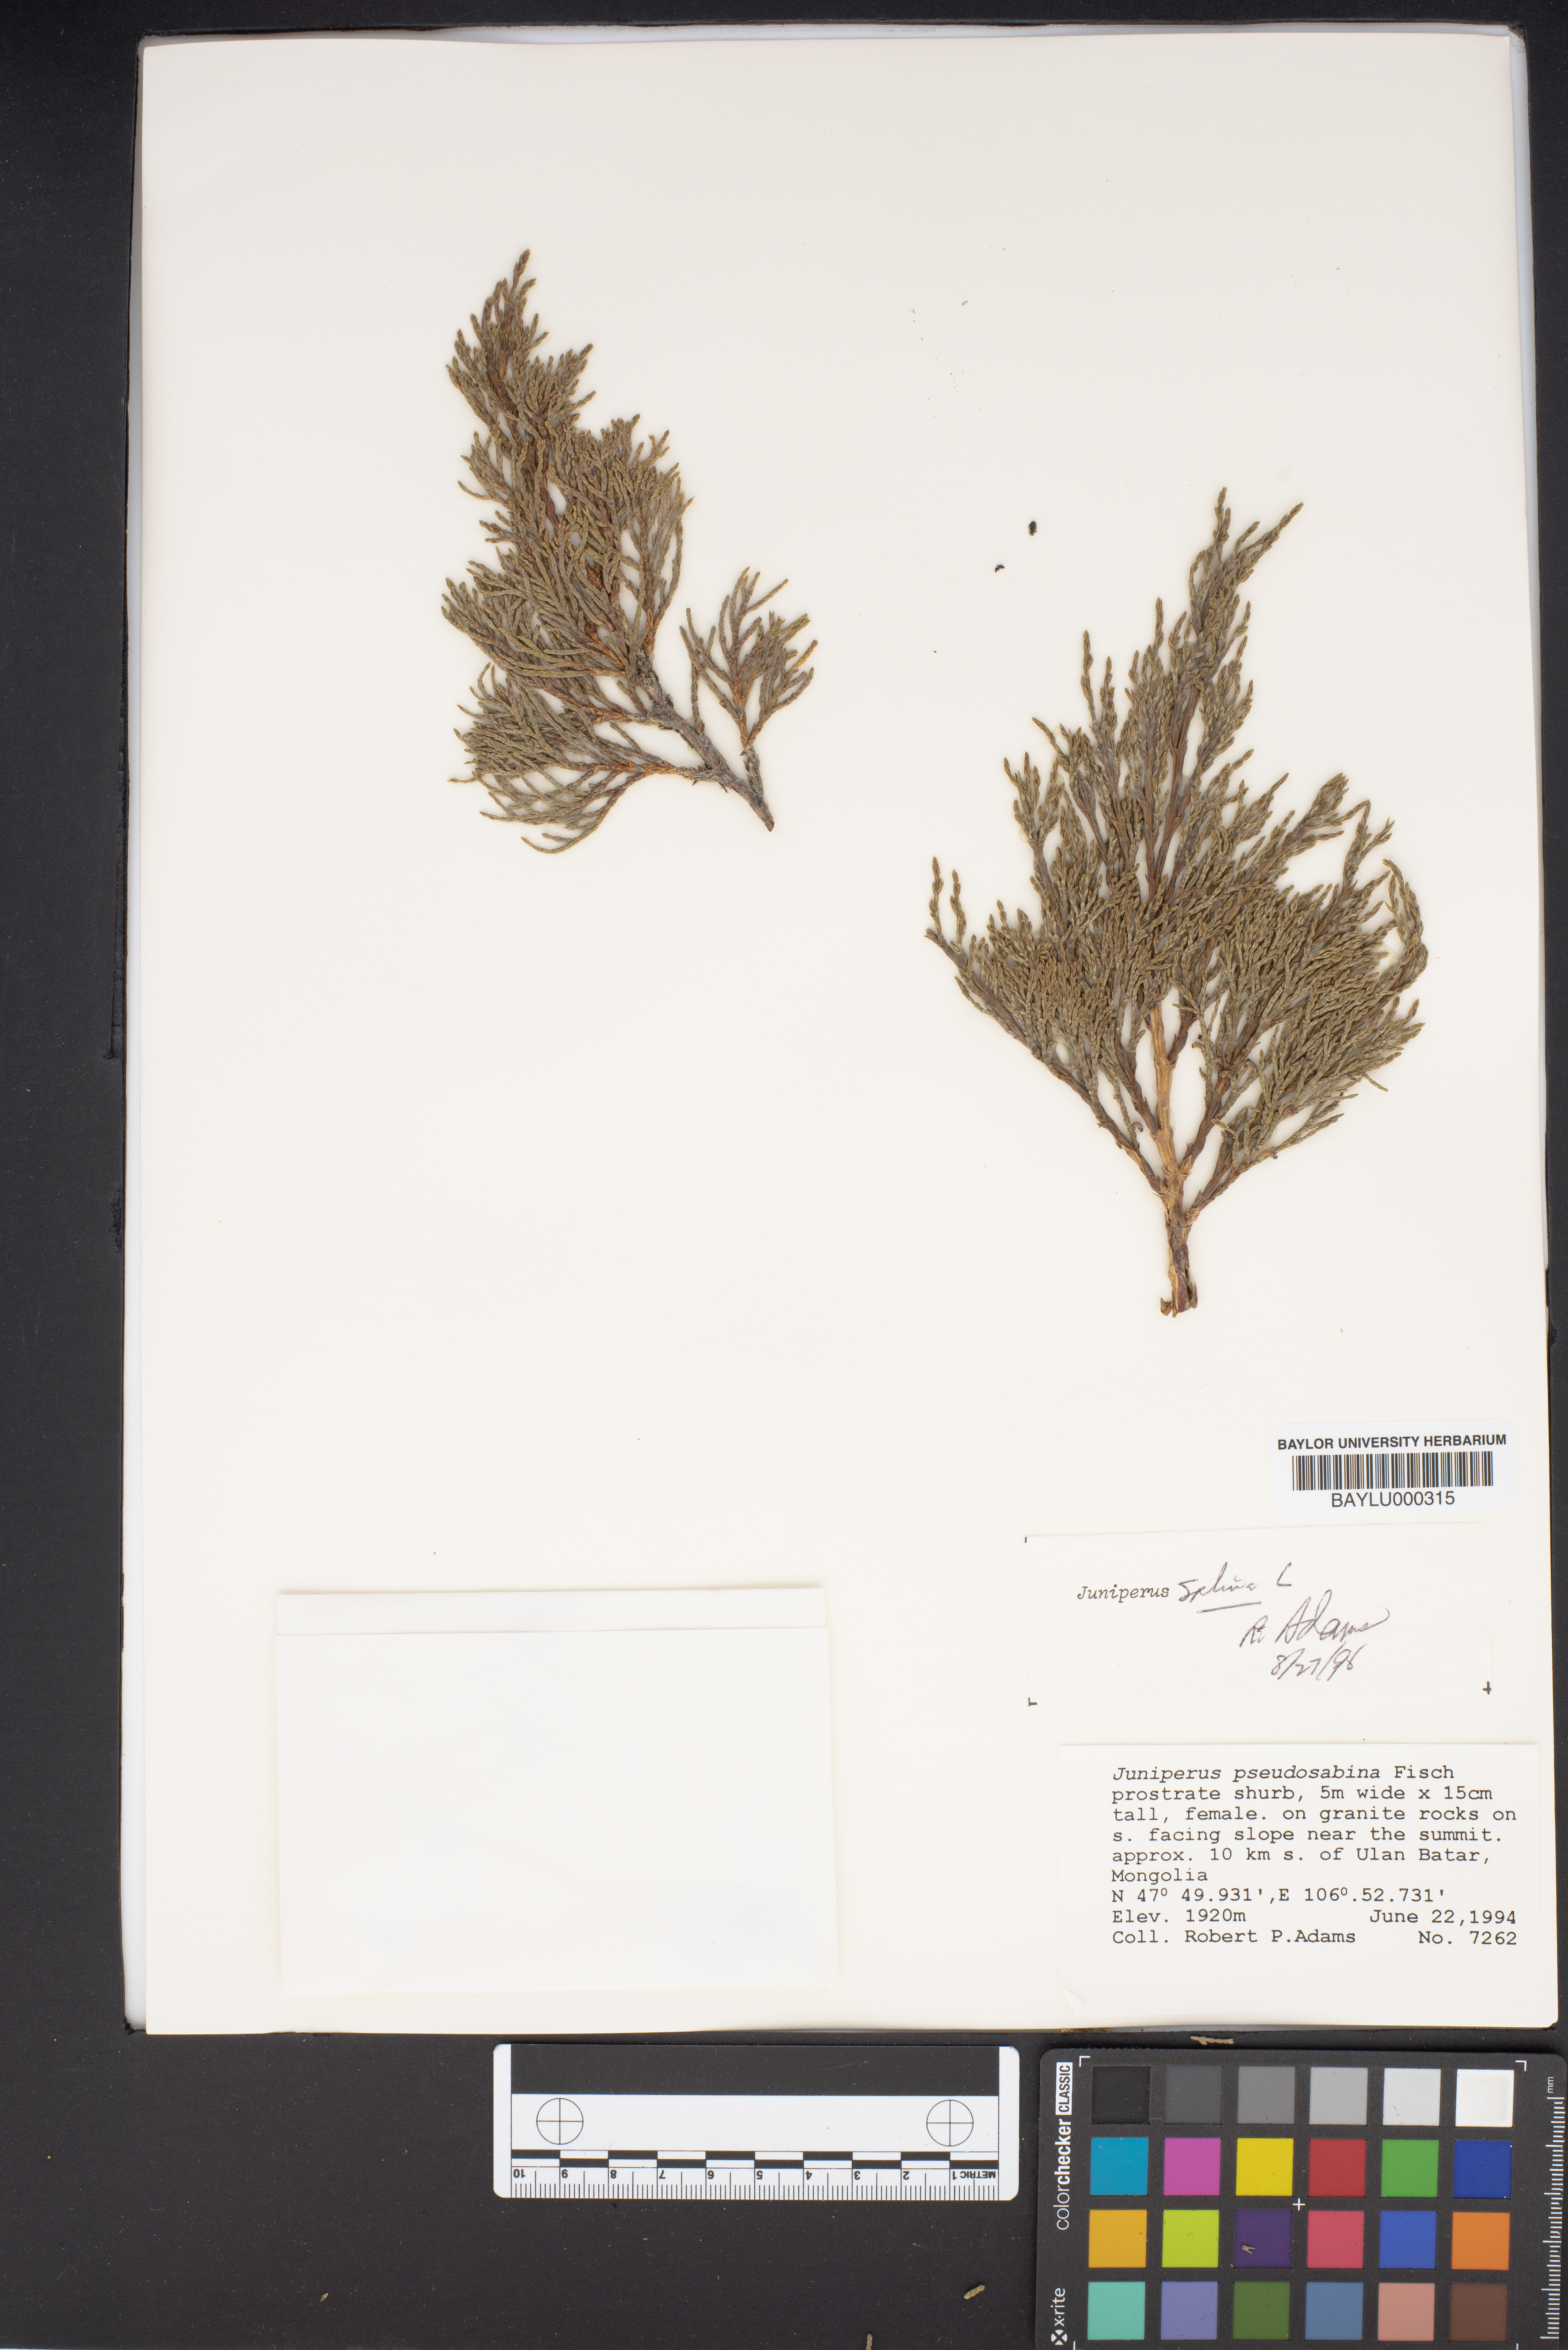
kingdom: Plantae
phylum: Tracheophyta
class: Pinopsida
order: Pinales
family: Cupressaceae
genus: Juniperus
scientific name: Juniperus pseudosabina
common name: Turkestan juniper
